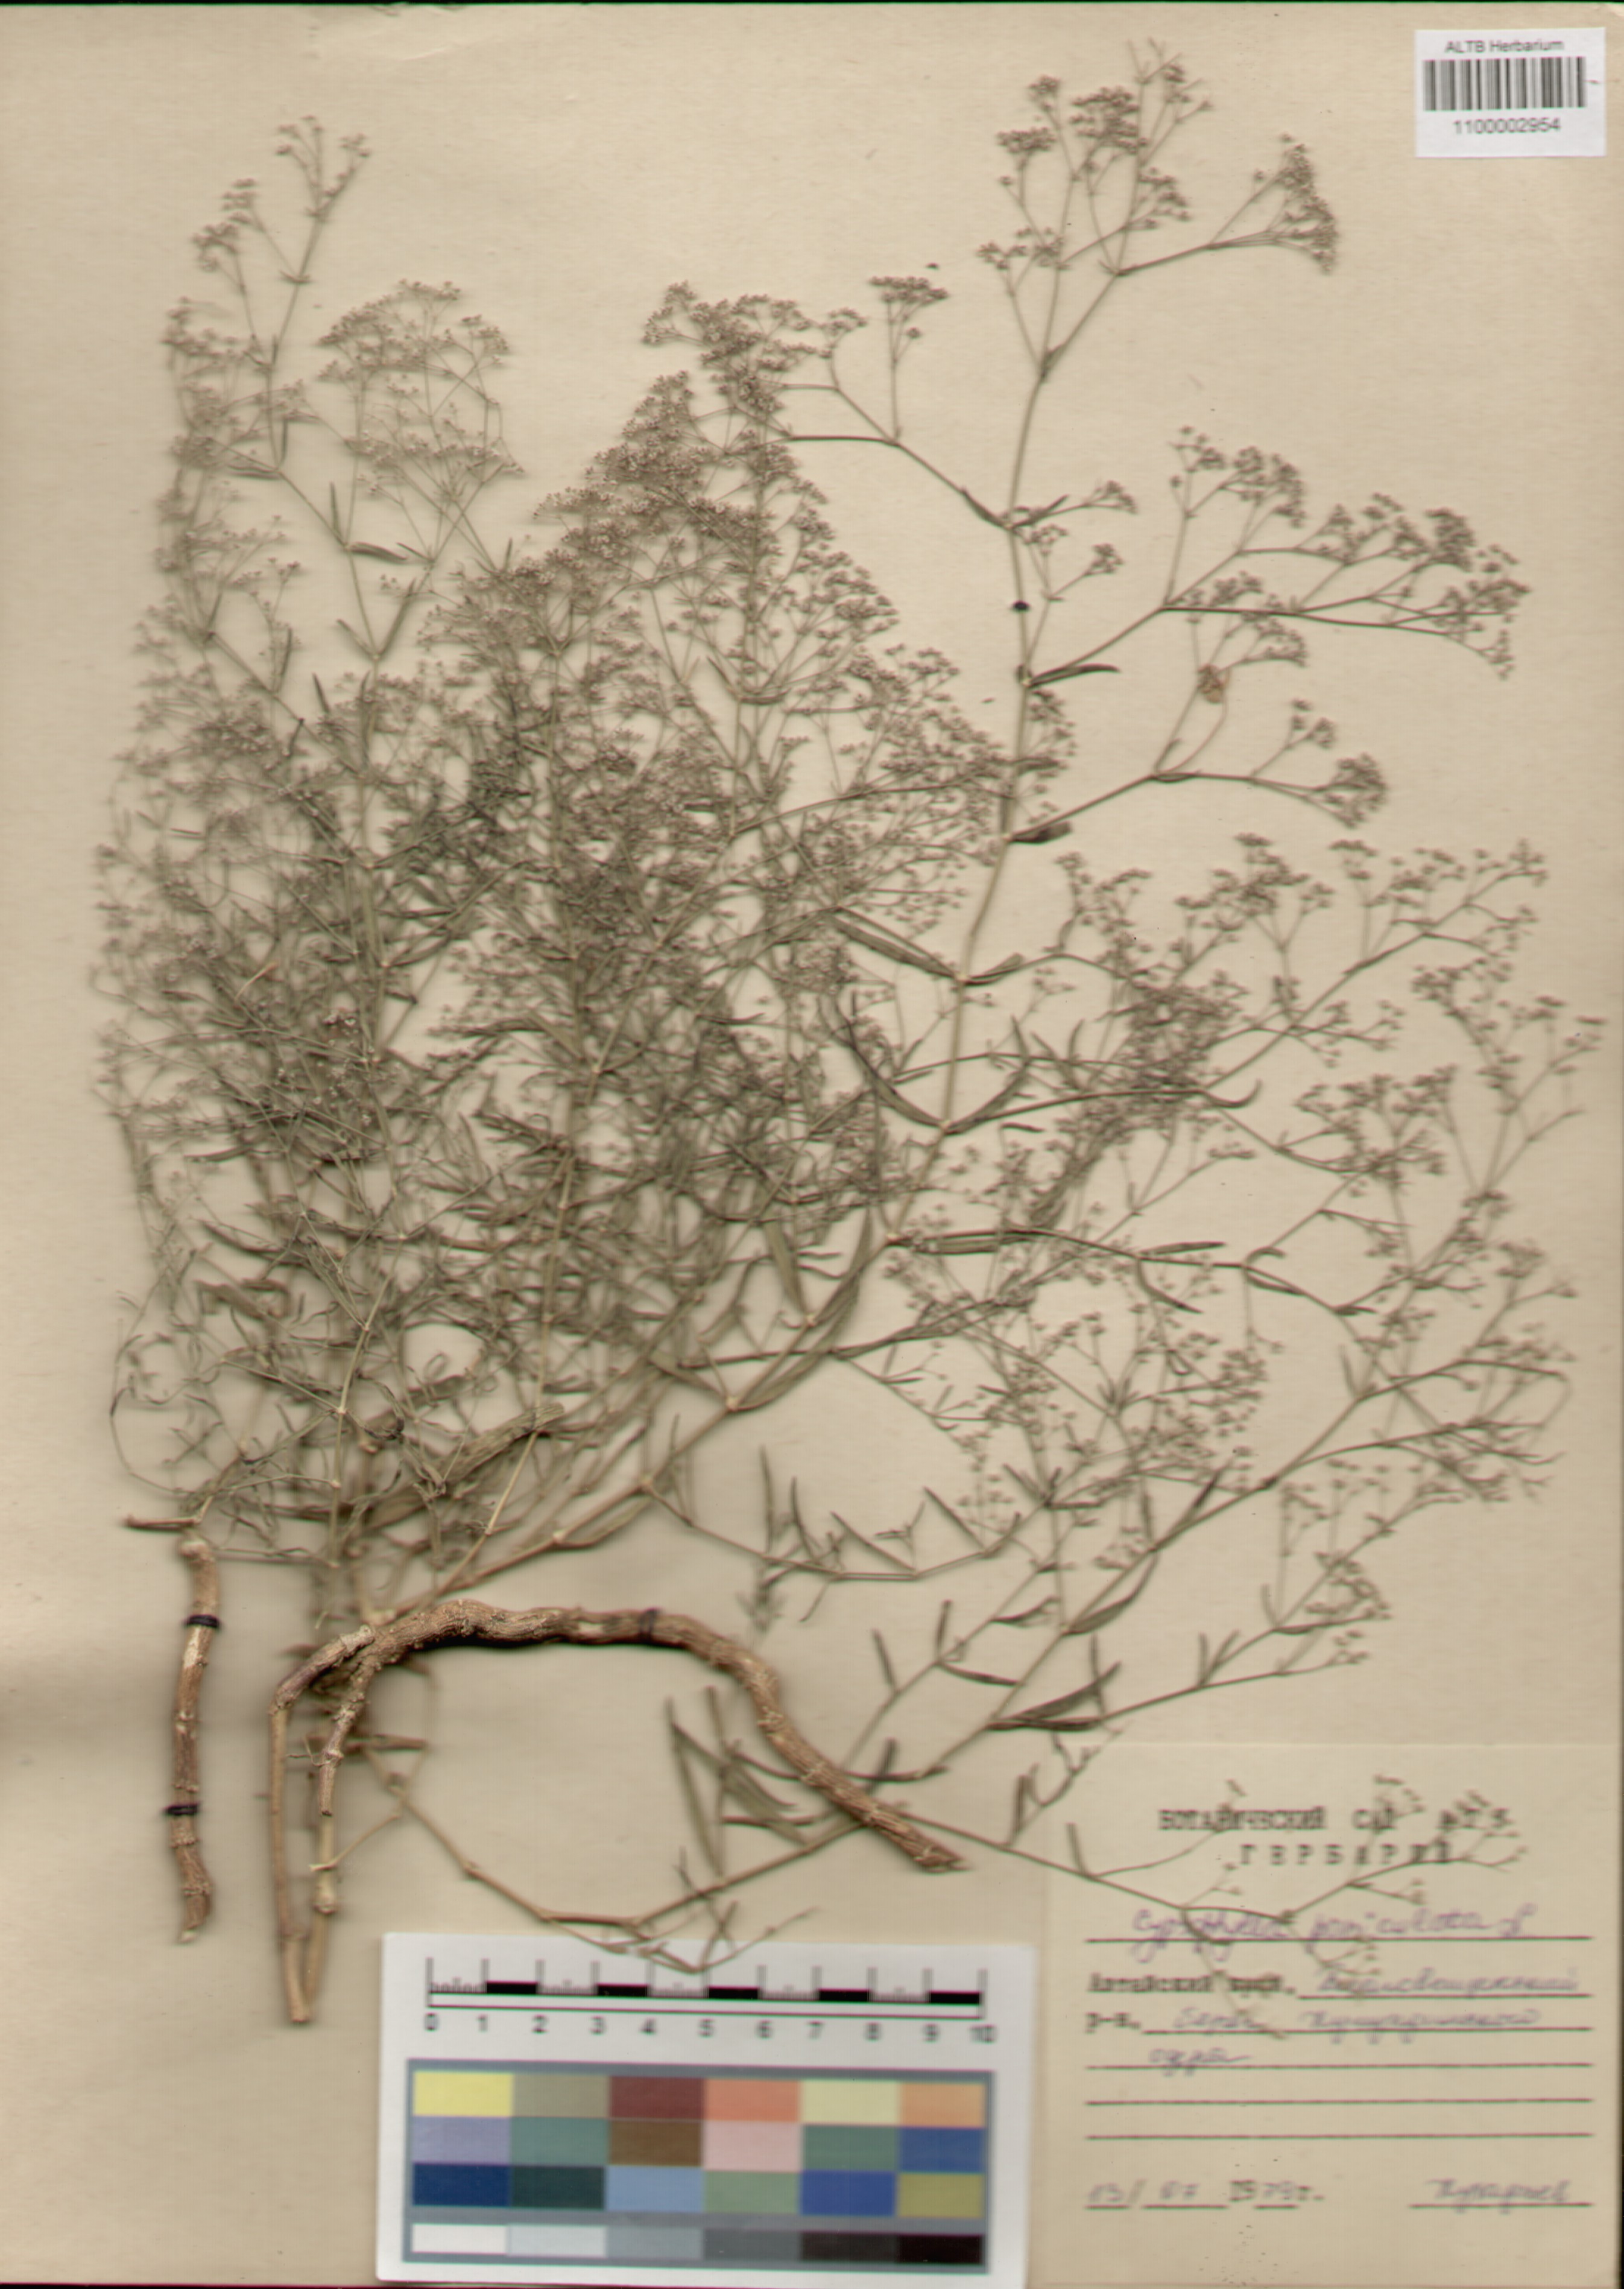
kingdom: Plantae
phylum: Tracheophyta
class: Magnoliopsida
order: Caryophyllales
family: Caryophyllaceae
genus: Gypsophila
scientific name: Gypsophila paniculata
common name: Baby's-breath
